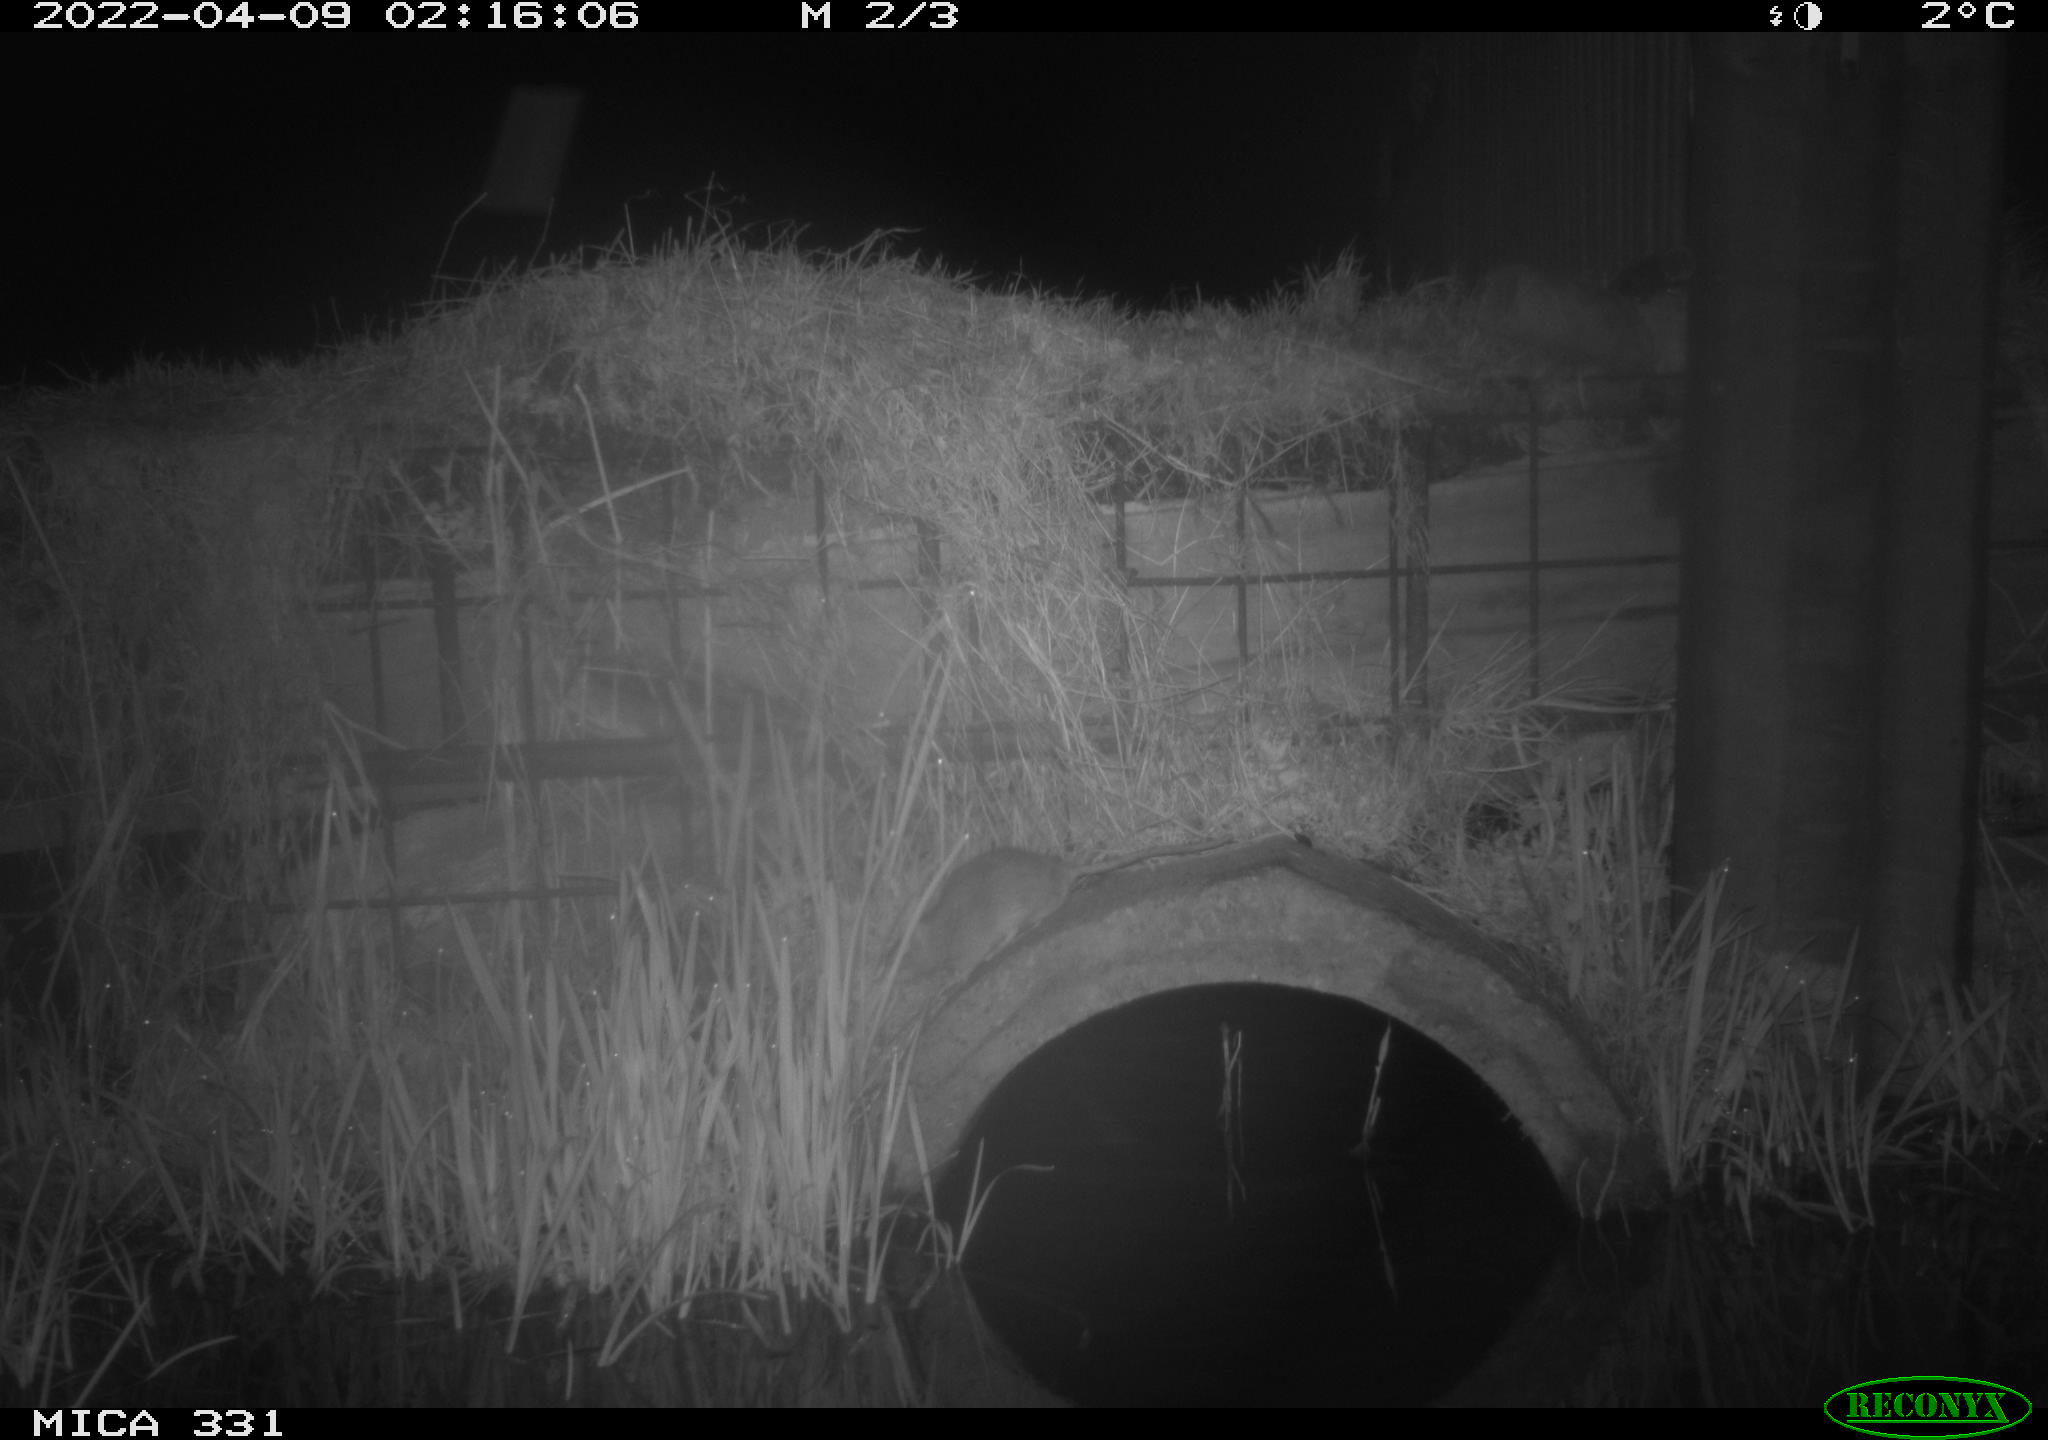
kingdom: Animalia
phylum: Chordata
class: Mammalia
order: Rodentia
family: Muridae
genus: Rattus
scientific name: Rattus norvegicus
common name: Brown rat
